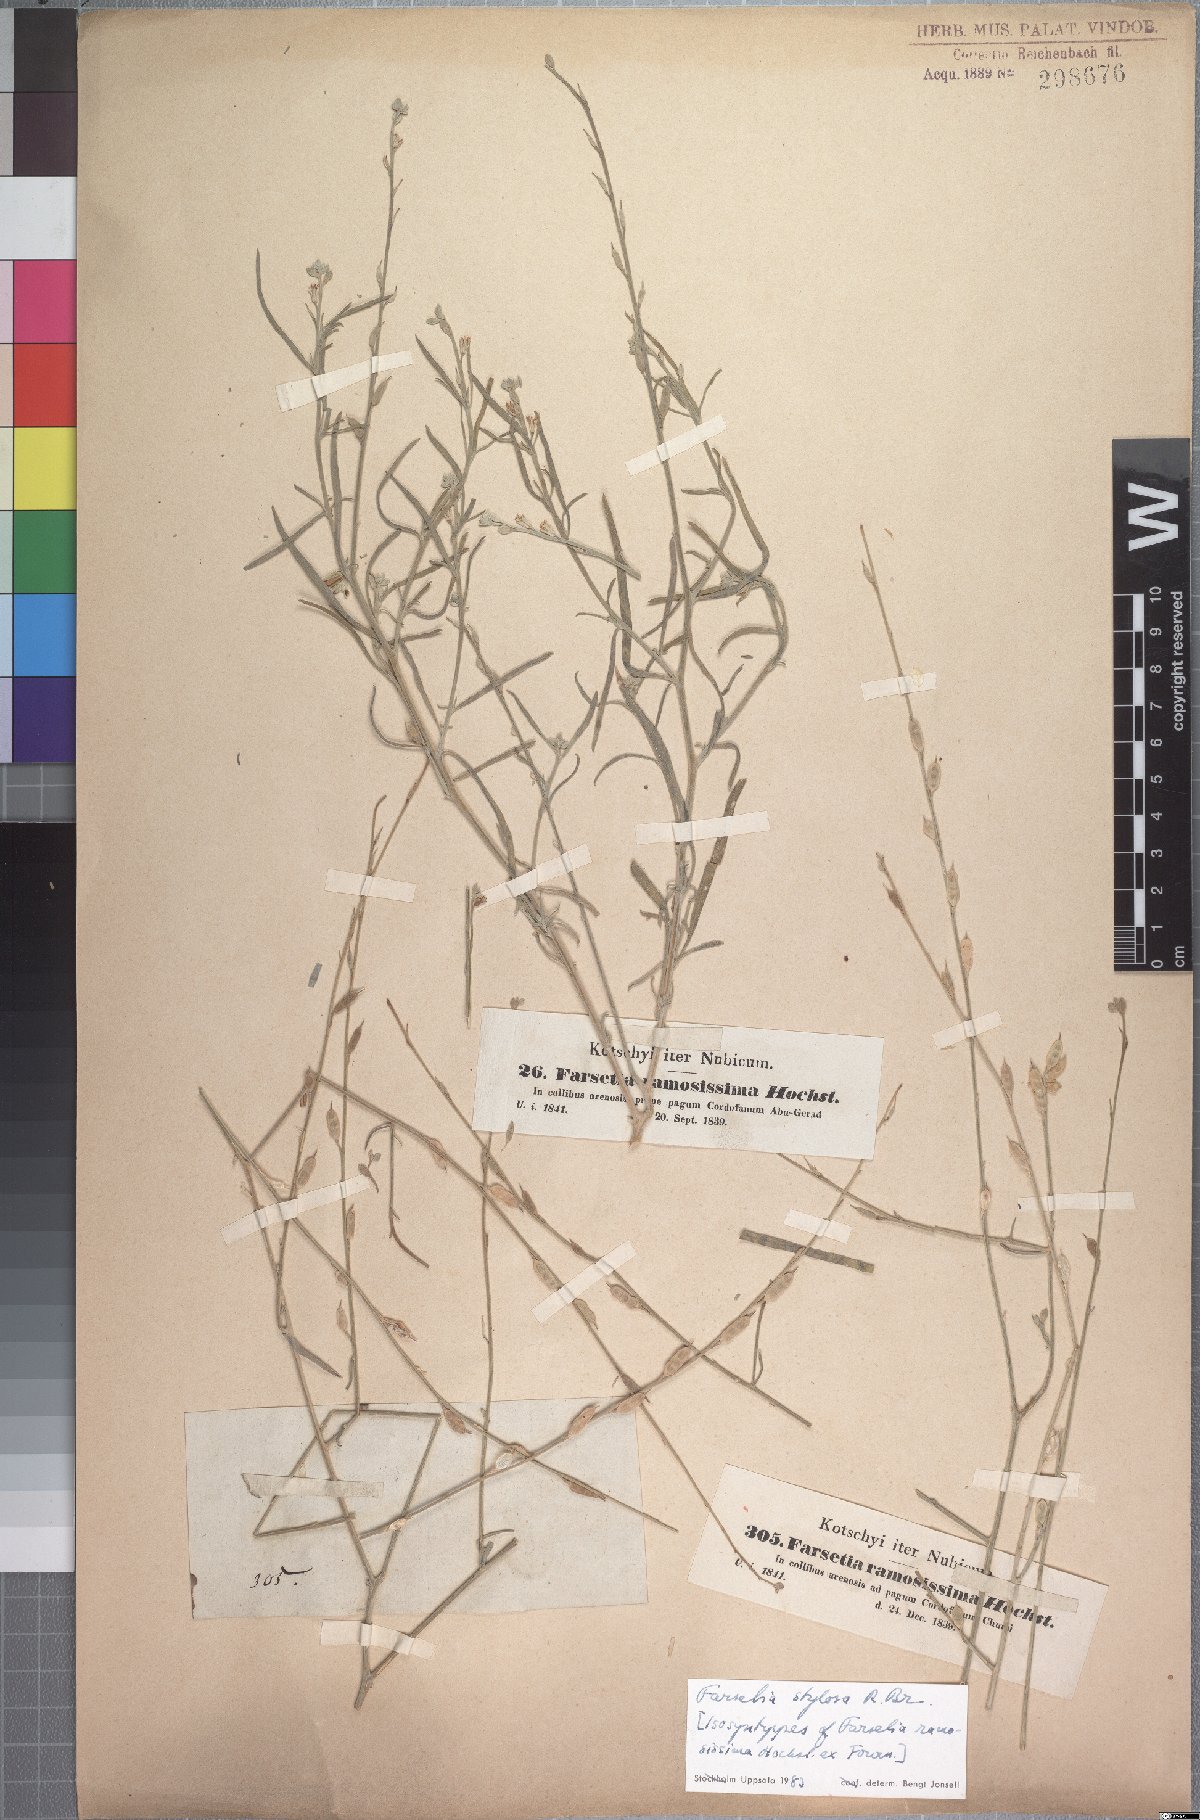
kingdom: Plantae
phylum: Tracheophyta
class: Magnoliopsida
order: Brassicales
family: Brassicaceae
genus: Farsetia
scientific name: Farsetia stylosa
